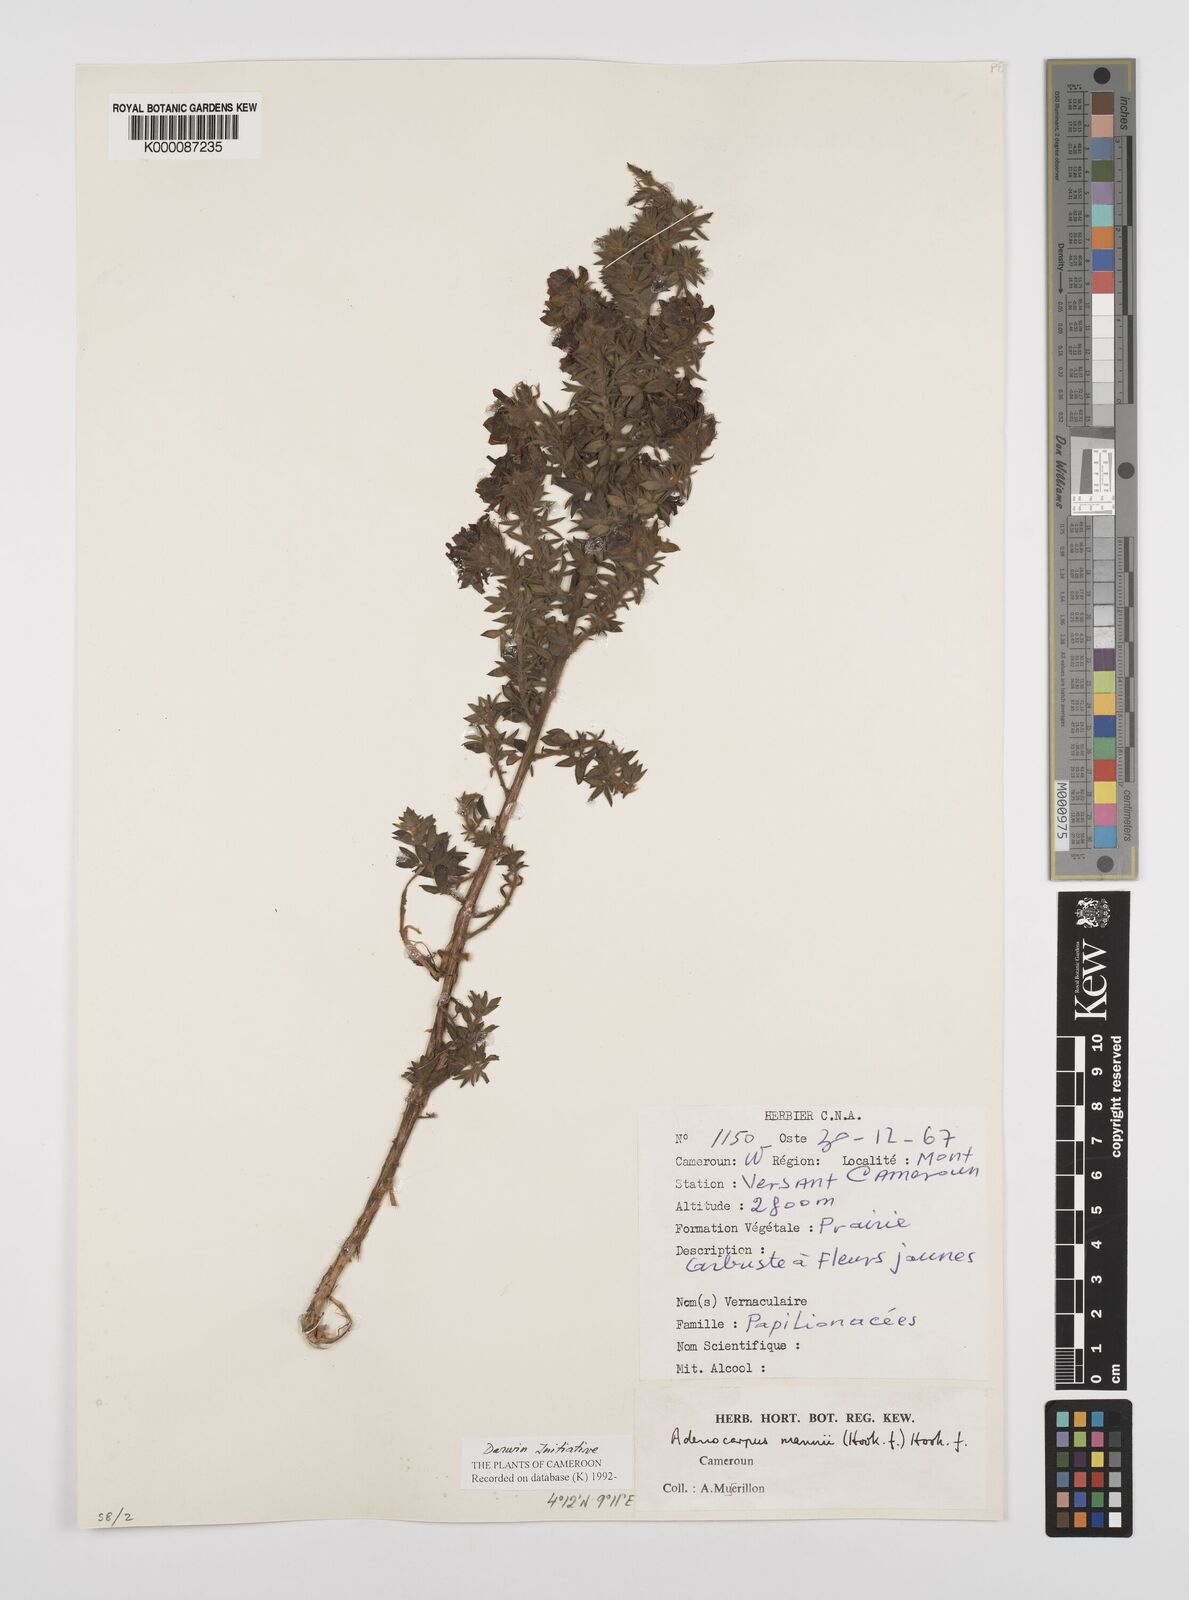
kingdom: Plantae
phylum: Tracheophyta
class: Magnoliopsida
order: Fabales
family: Fabaceae
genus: Adenocarpus
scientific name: Adenocarpus mannii
